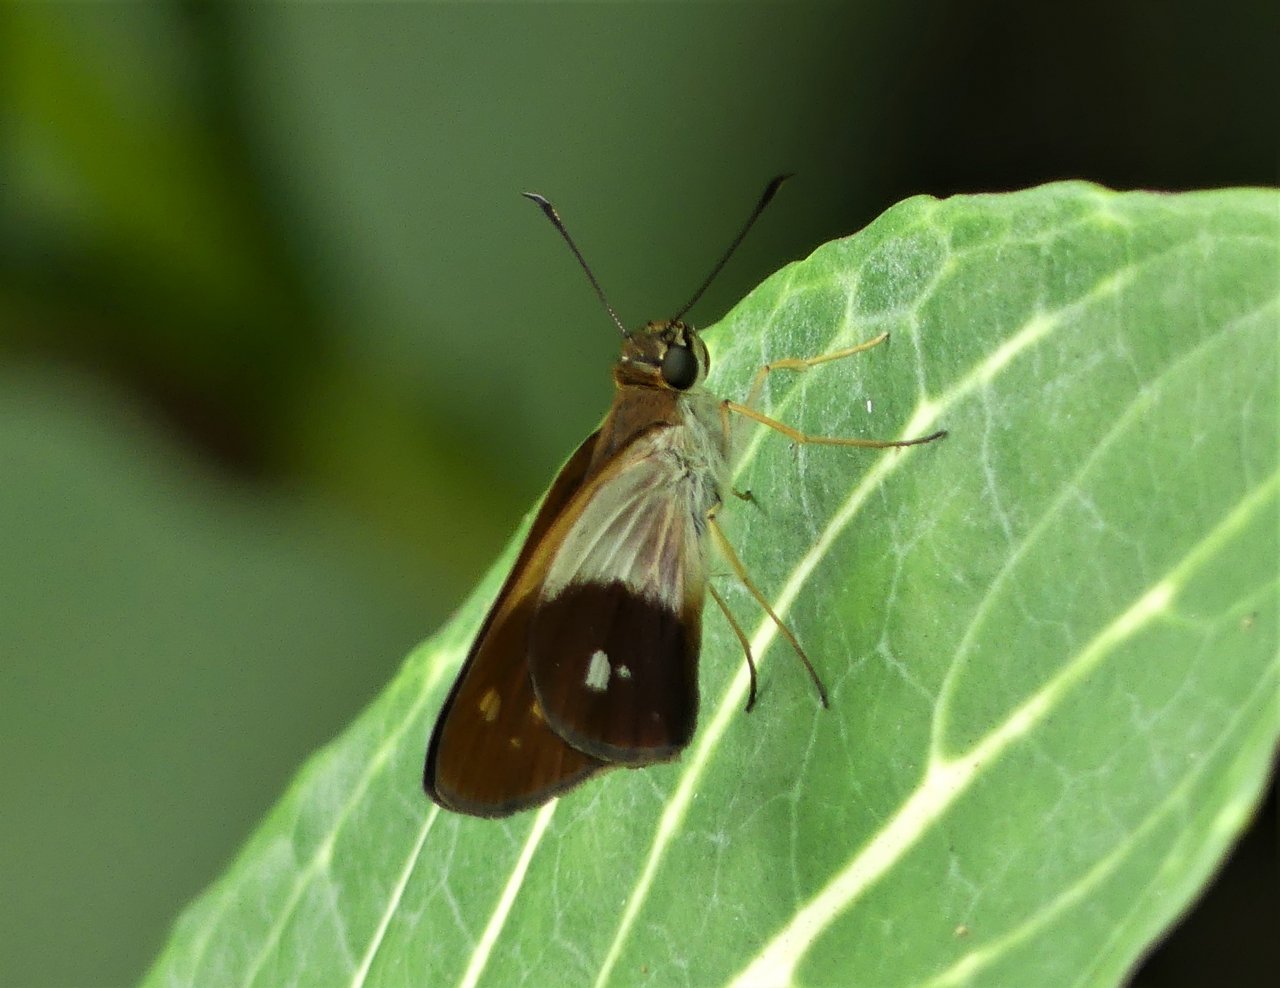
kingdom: Animalia
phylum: Arthropoda
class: Insecta
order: Lepidoptera
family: Hesperiidae
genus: Saliana
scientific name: Saliana esperi
